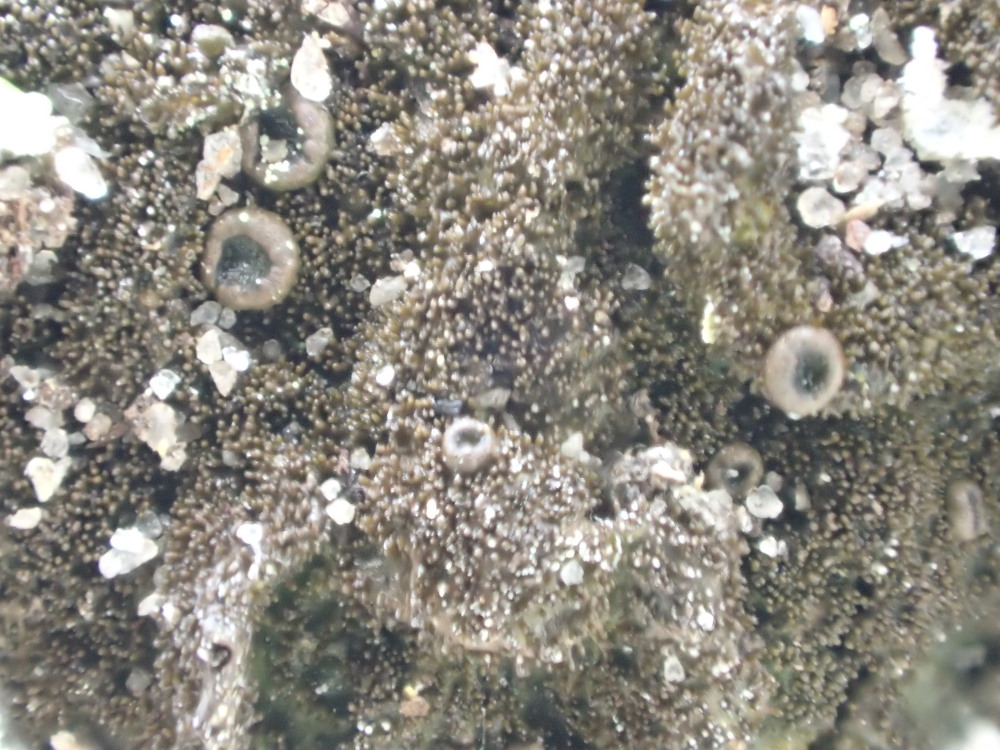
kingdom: Fungi
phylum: Ascomycota
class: Lecanoromycetes
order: Lecanorales
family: Parmeliaceae
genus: Melanelixia
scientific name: Melanelixia fuliginosa
